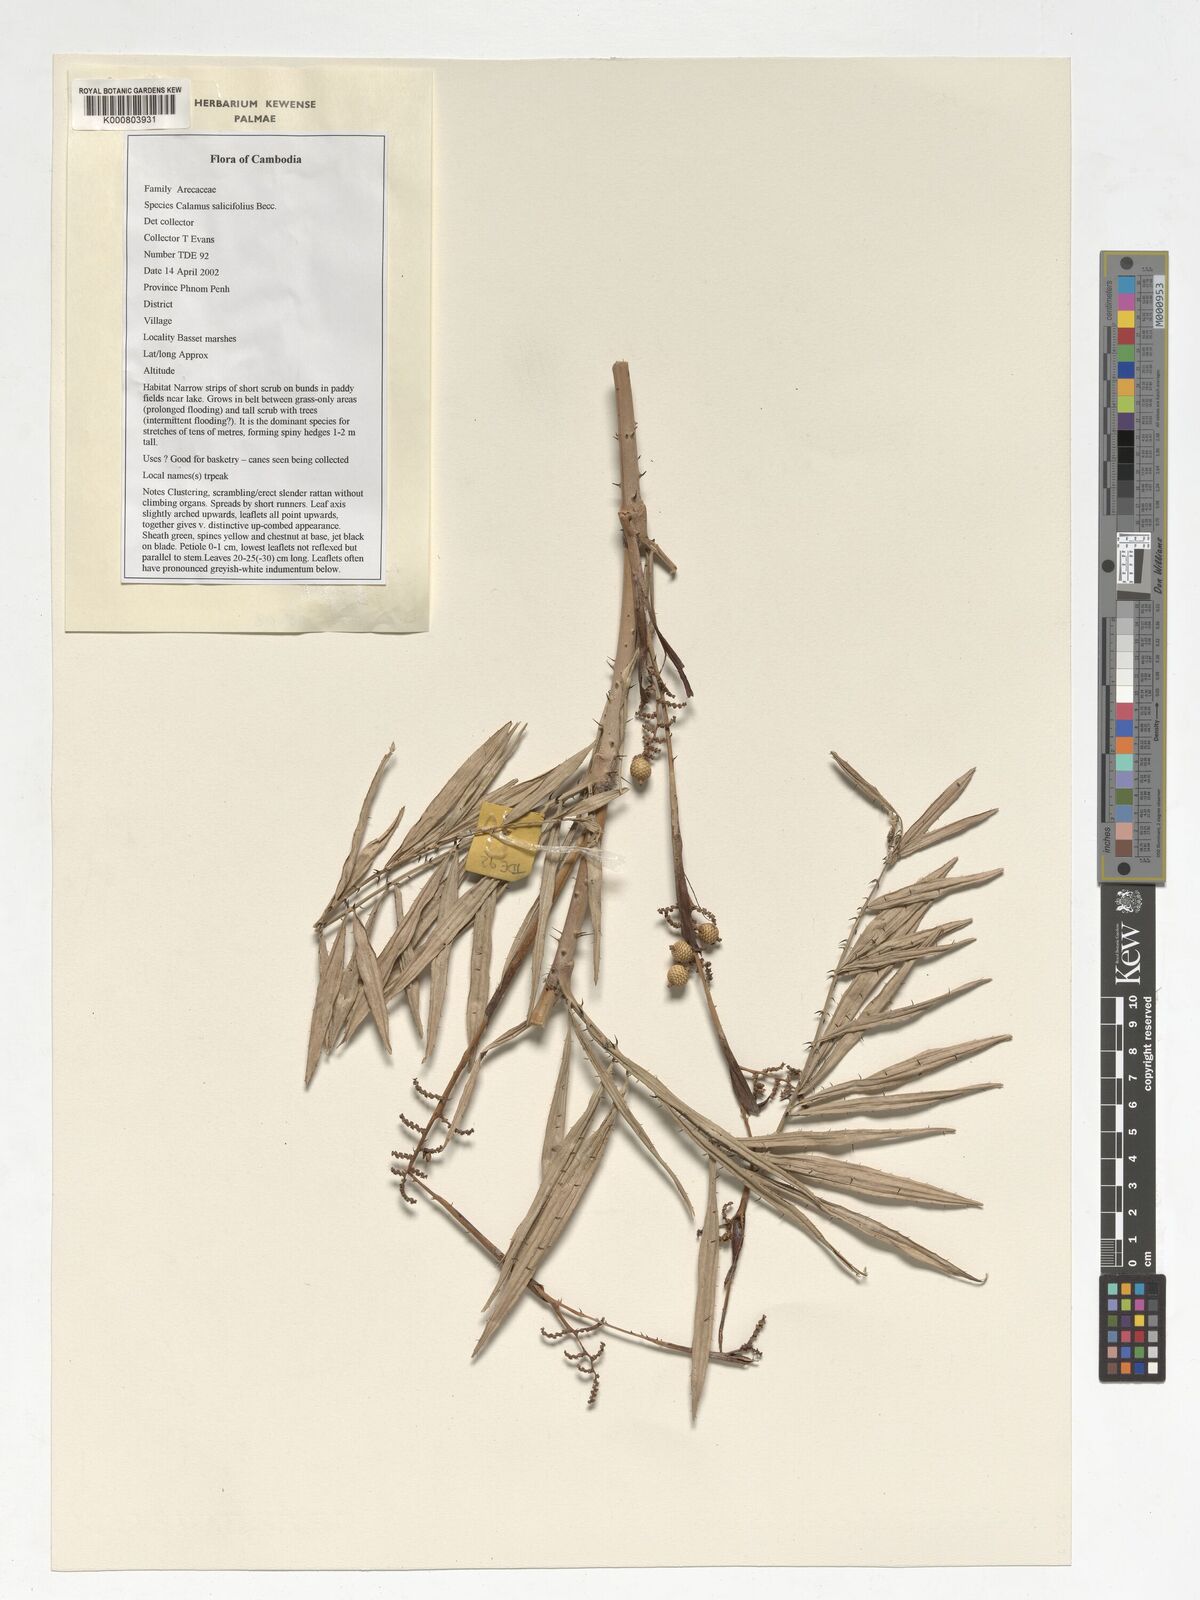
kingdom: Plantae
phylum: Tracheophyta
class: Liliopsida
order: Arecales
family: Arecaceae
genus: Calamus
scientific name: Calamus salicifolius
